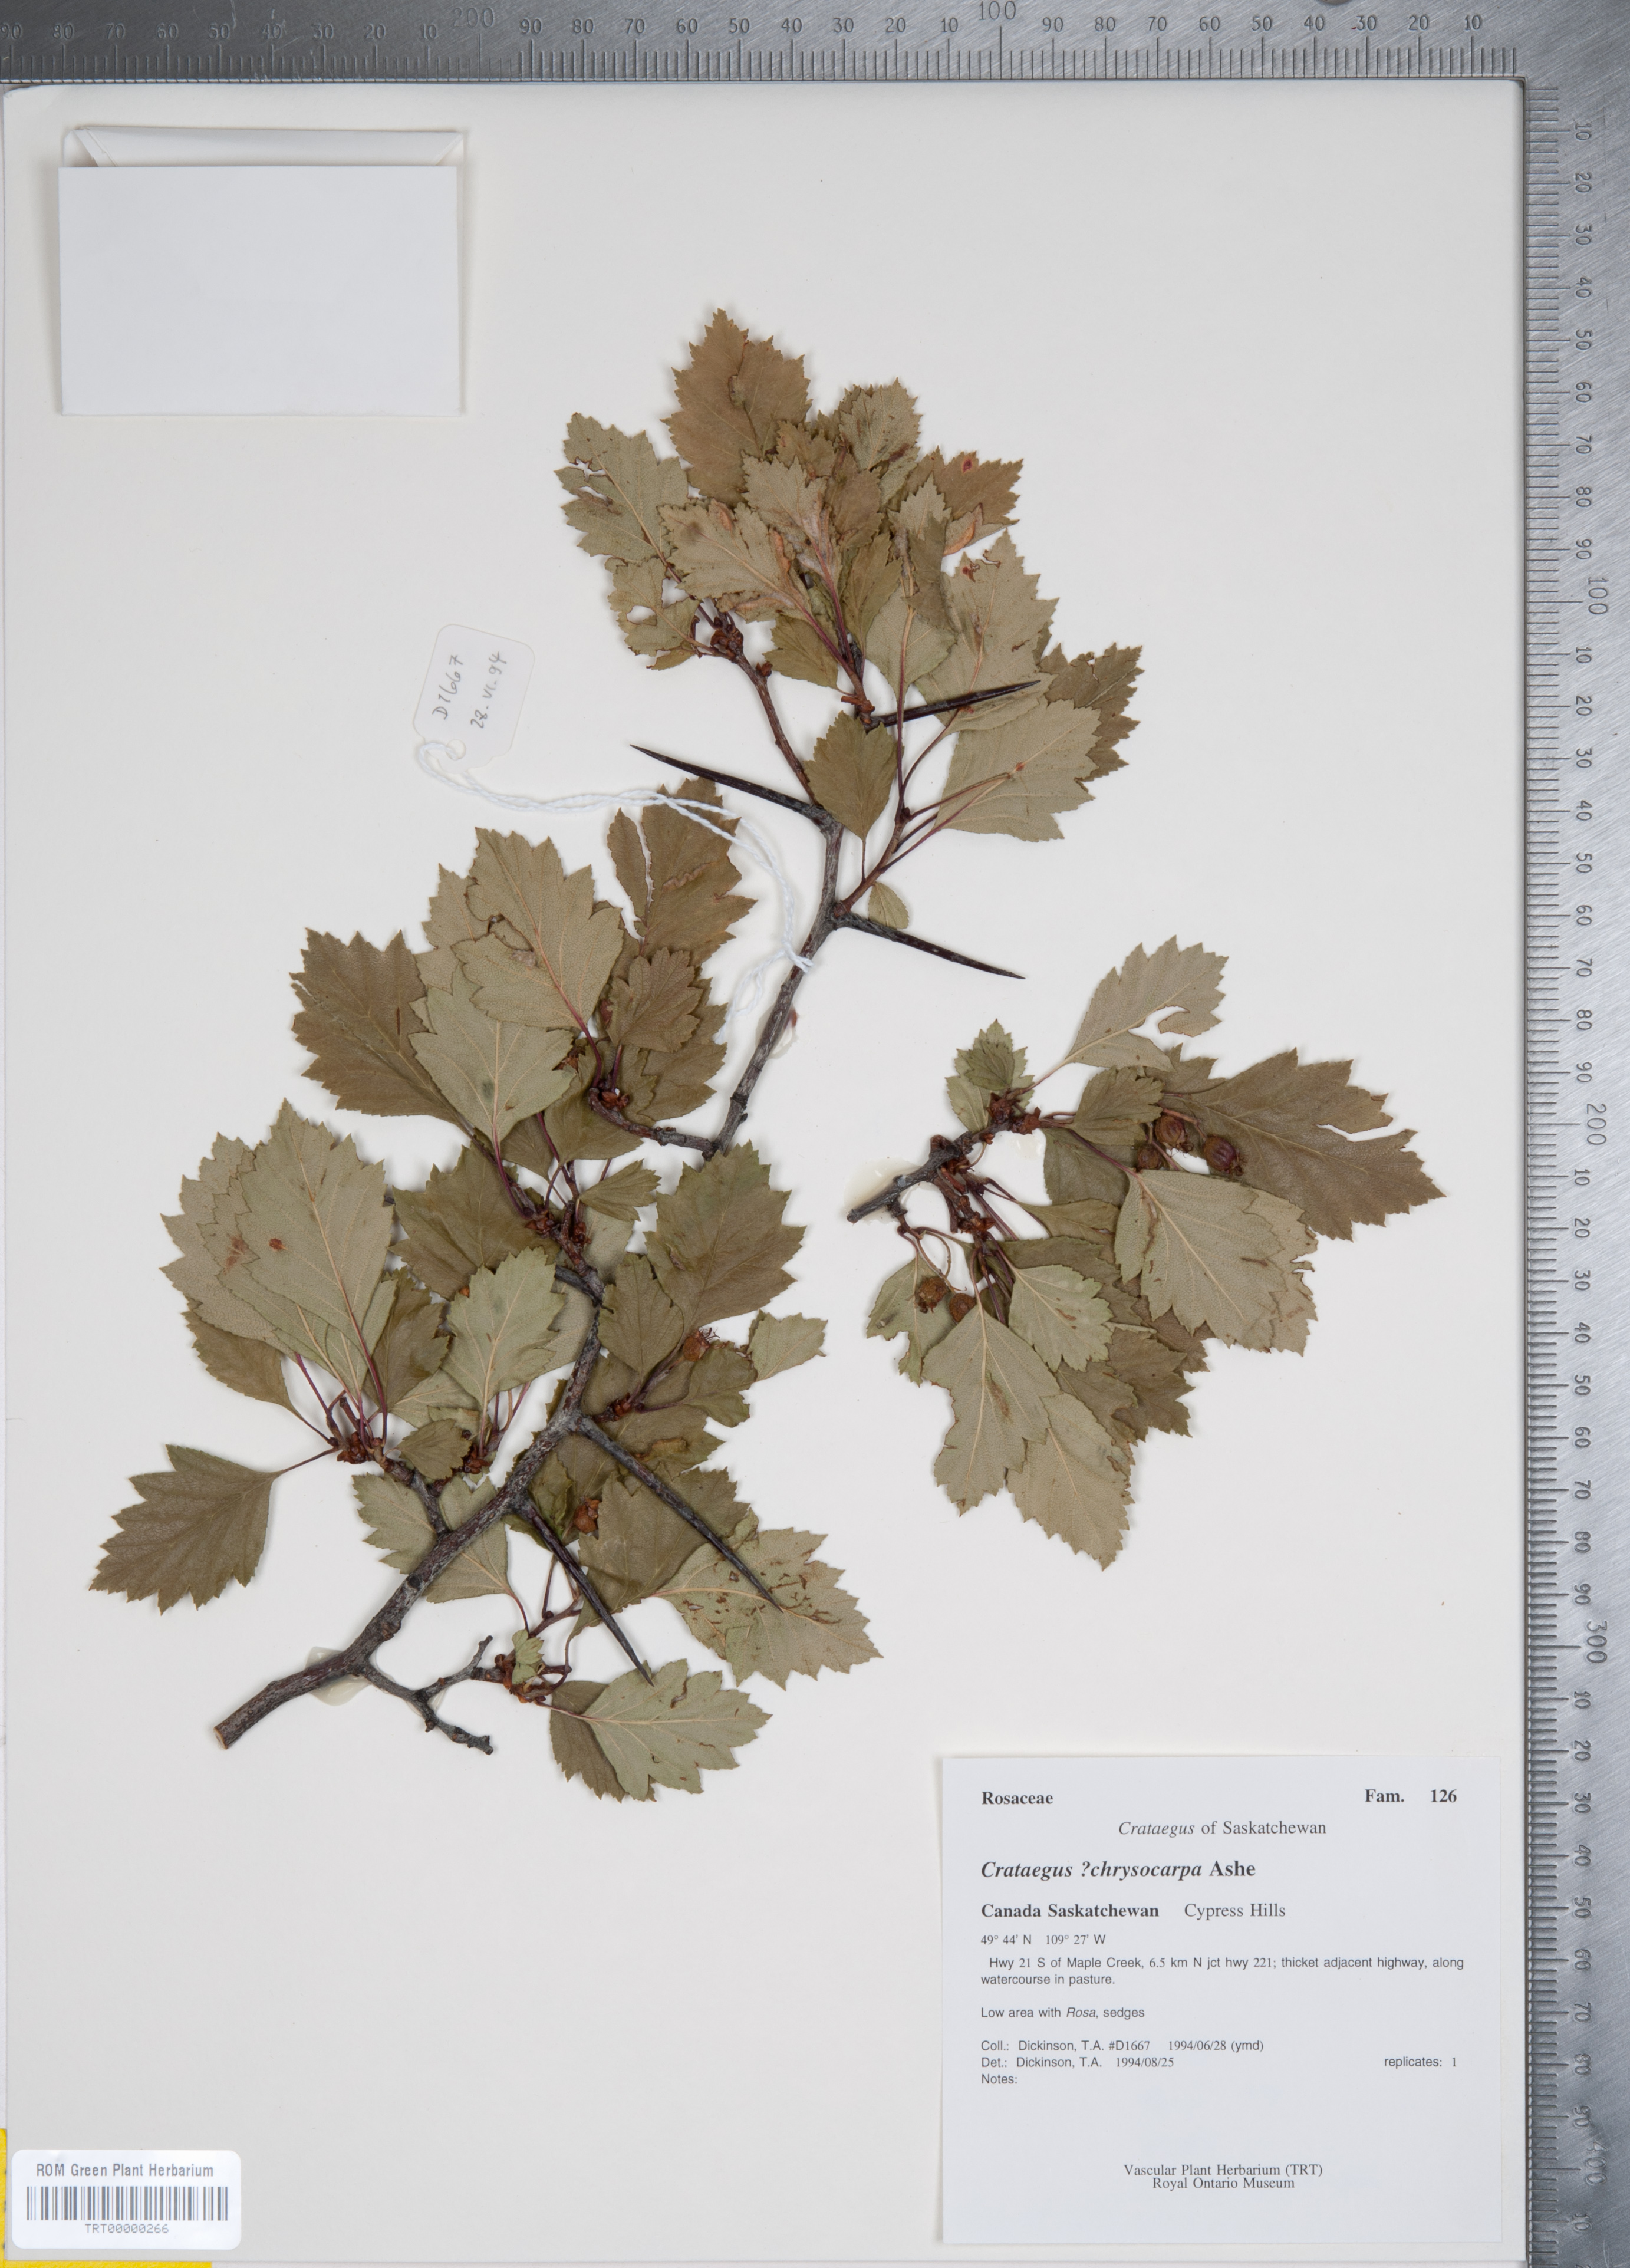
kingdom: Plantae
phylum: Tracheophyta
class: Magnoliopsida
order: Rosales
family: Rosaceae
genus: Crataegus
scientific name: Crataegus chrysocarpa
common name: Fire-berry hawthorn
